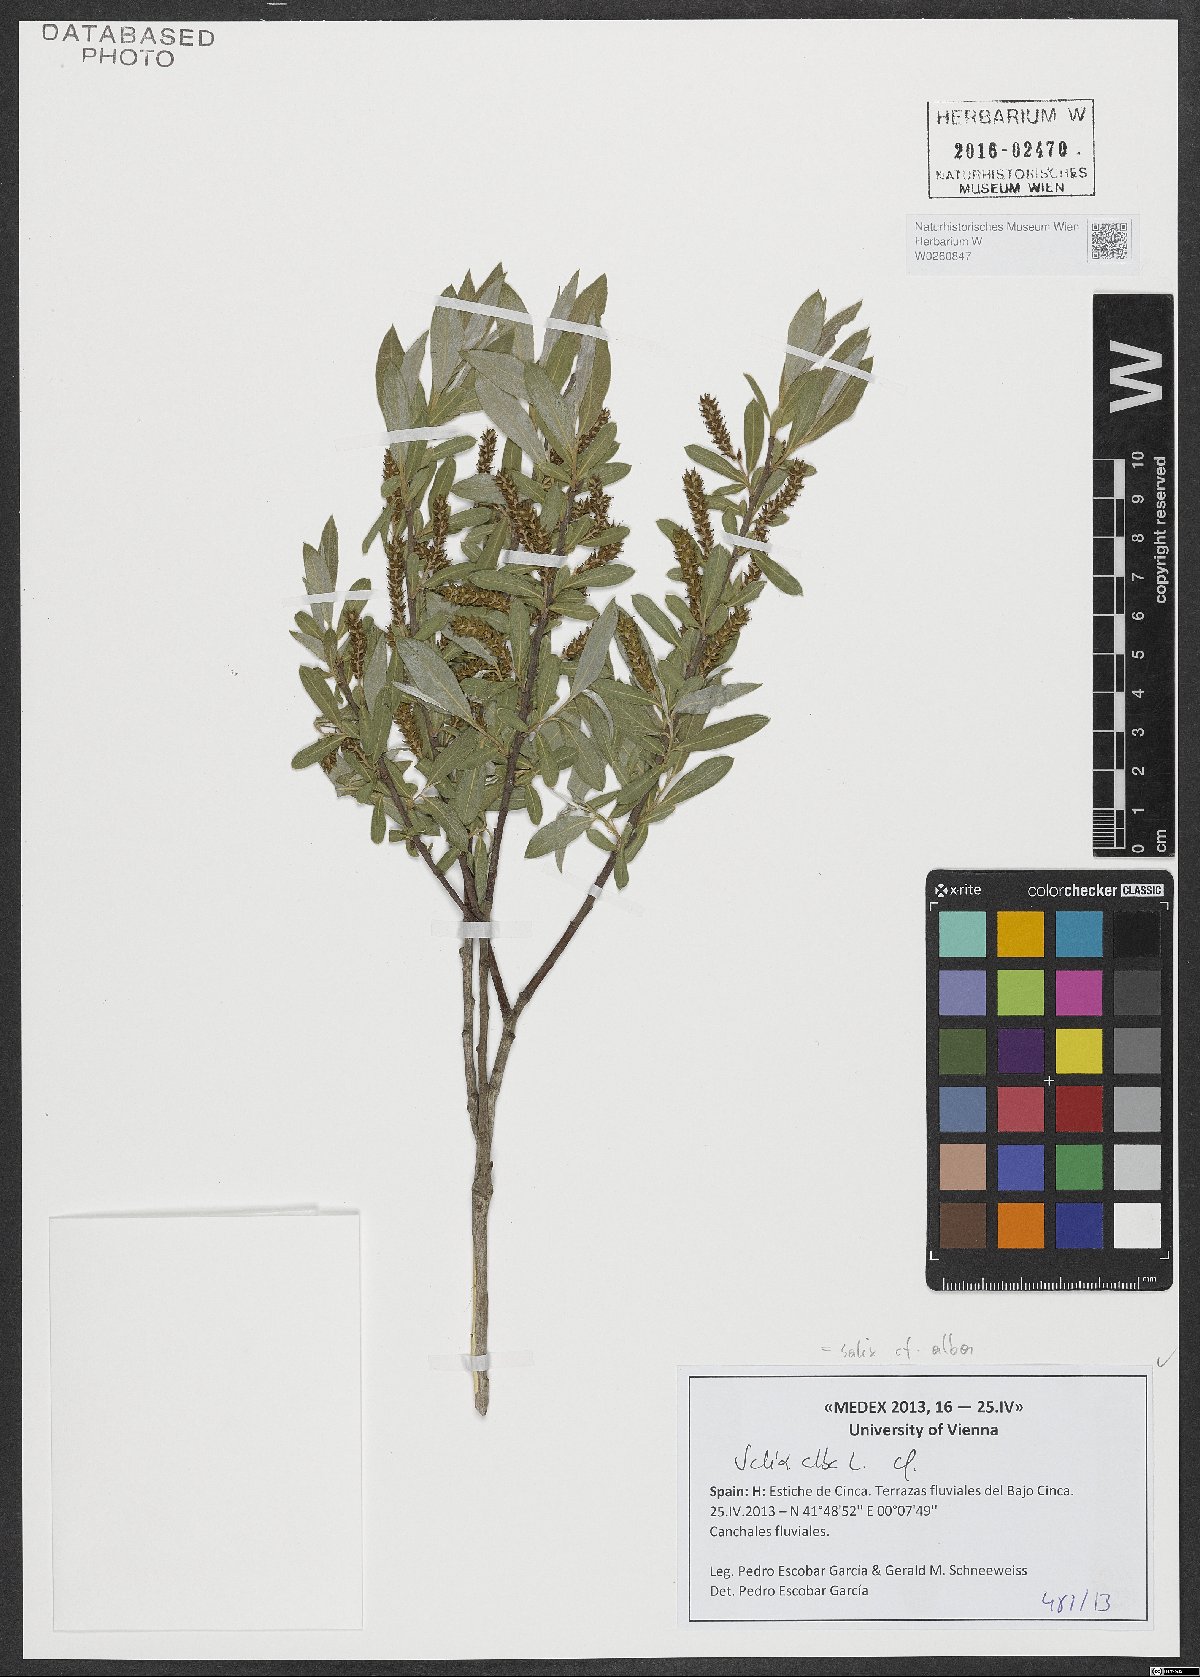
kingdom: Plantae
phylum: Tracheophyta
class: Magnoliopsida
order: Malpighiales
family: Salicaceae
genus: Salix
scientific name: Salix alba
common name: White willow
